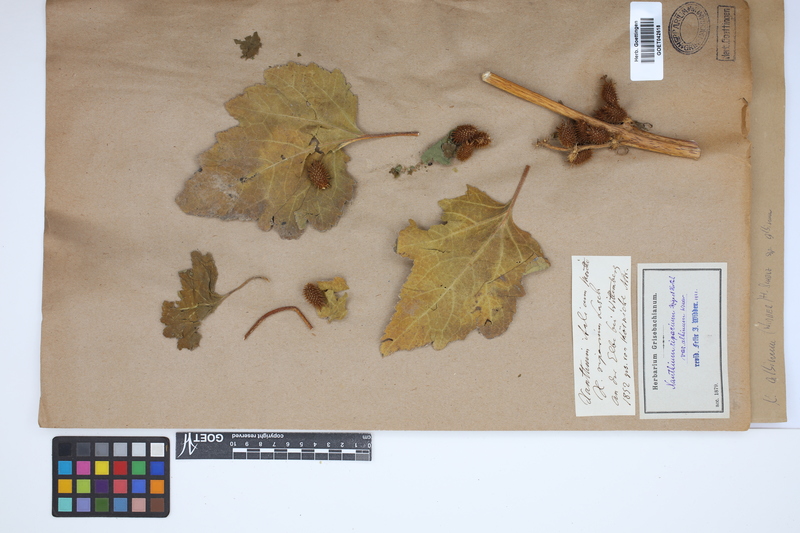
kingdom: Plantae
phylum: Tracheophyta
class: Magnoliopsida
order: Asterales
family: Asteraceae
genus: Xanthium
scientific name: Xanthium orientale
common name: Californian burr
